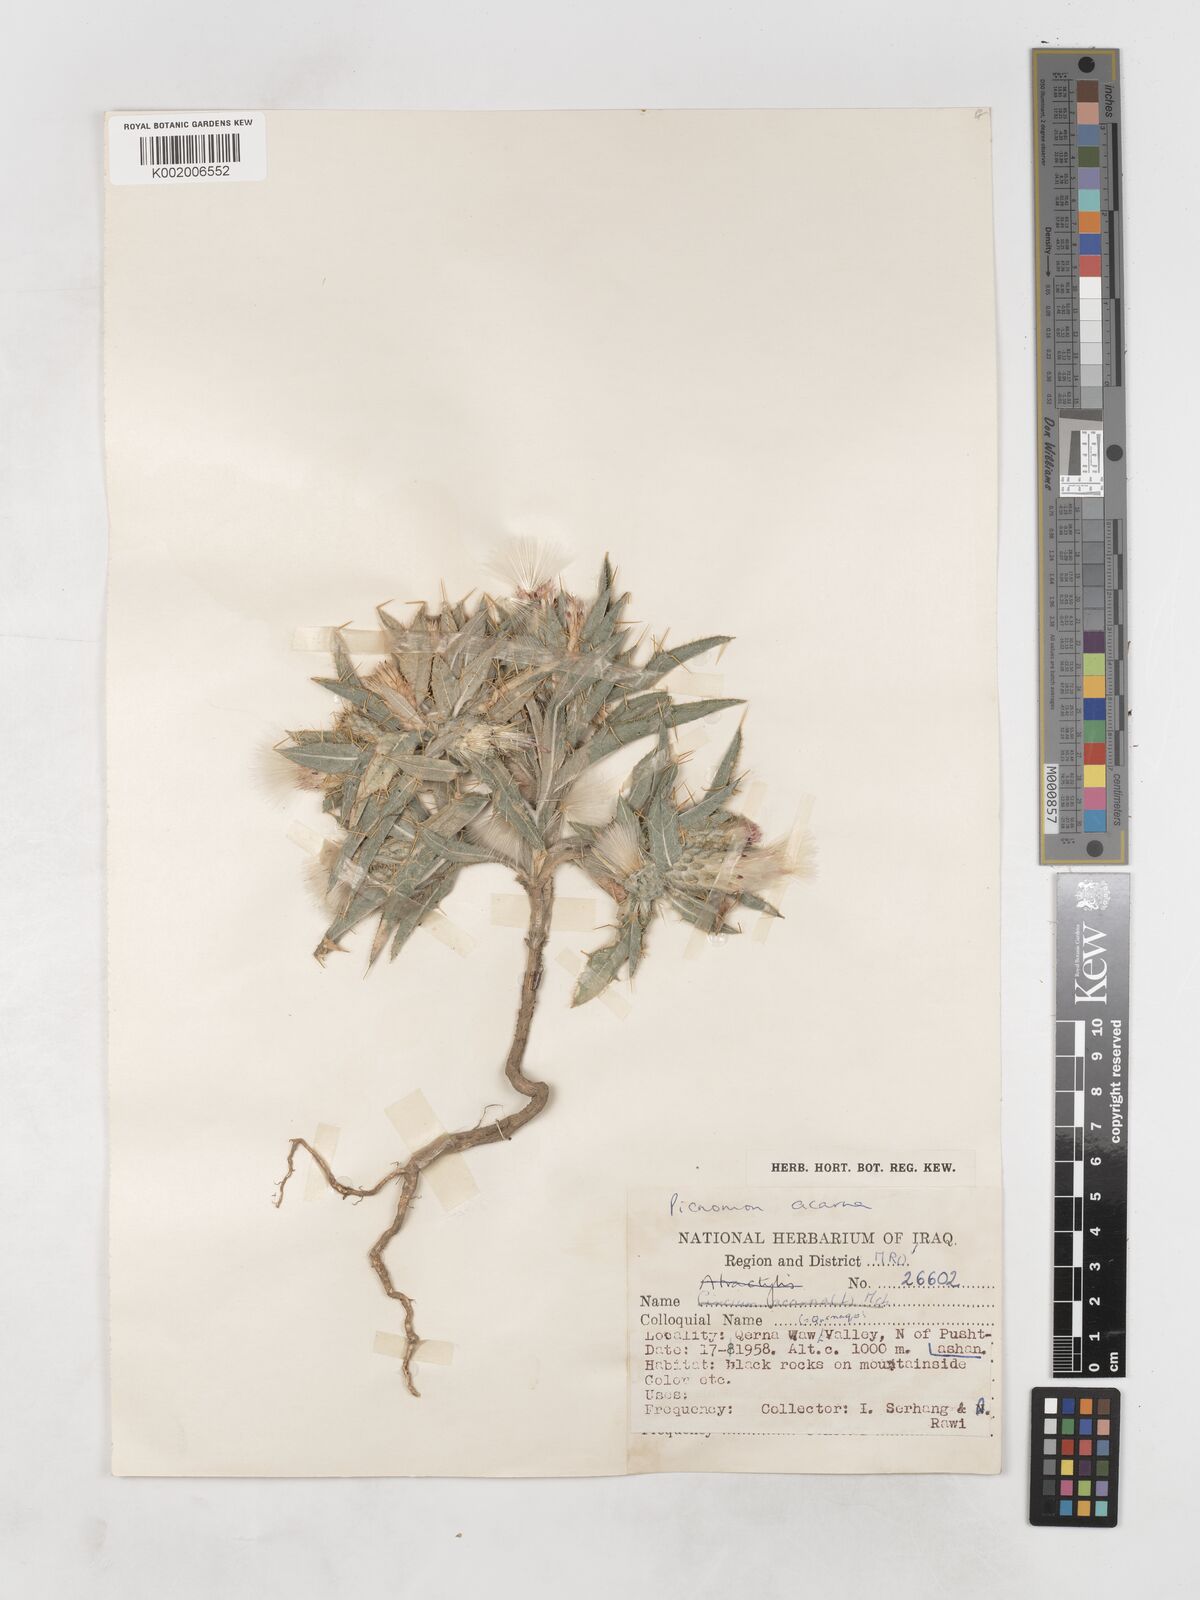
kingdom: Plantae
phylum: Tracheophyta
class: Magnoliopsida
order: Asterales
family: Asteraceae
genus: Picnomon
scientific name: Picnomon acarna
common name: Soldier thistle
